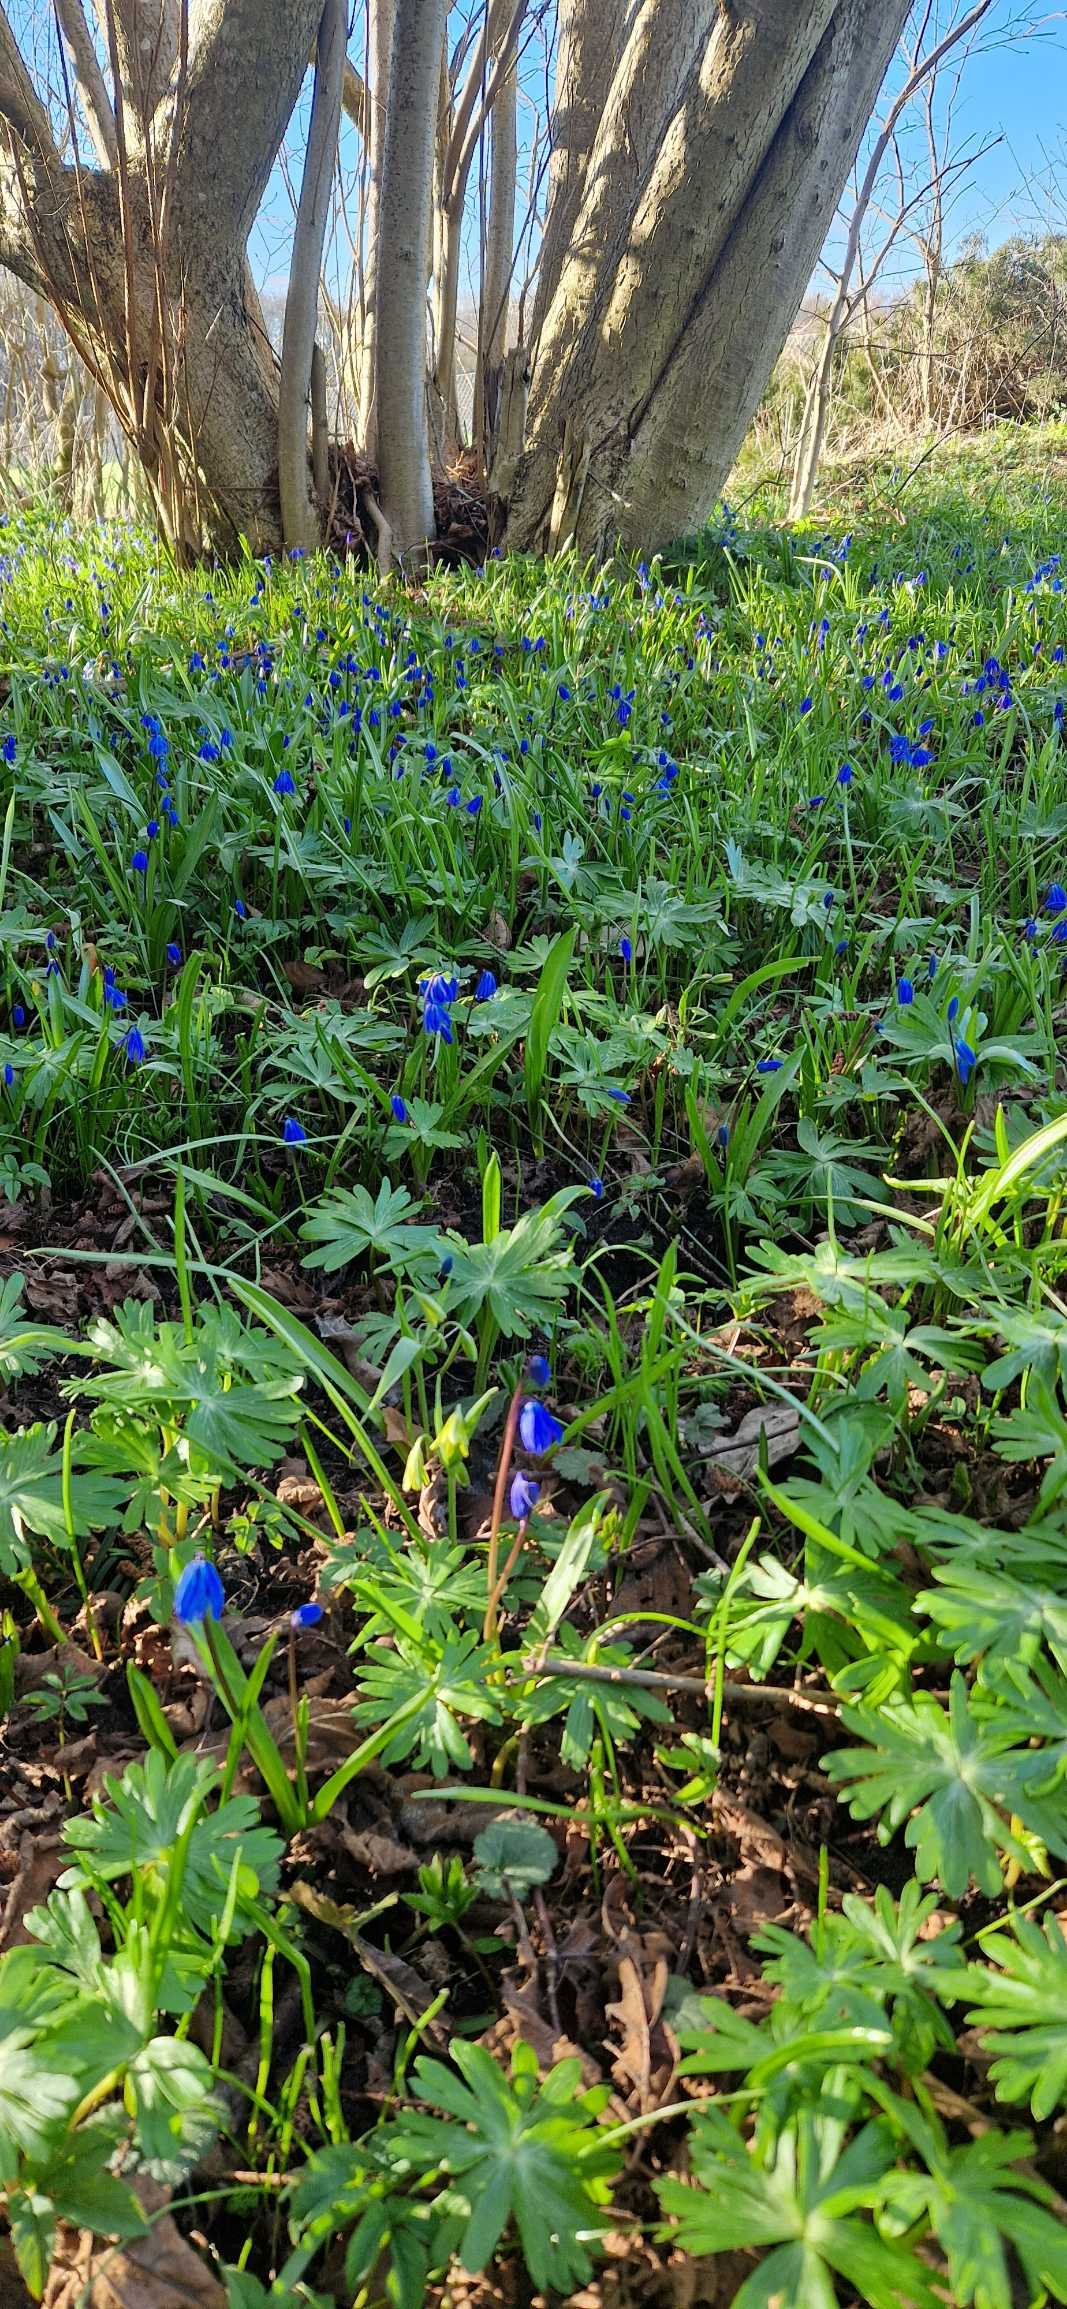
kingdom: Plantae
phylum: Tracheophyta
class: Liliopsida
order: Asparagales
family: Asparagaceae
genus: Scilla
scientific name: Scilla siberica
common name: Russisk skilla
